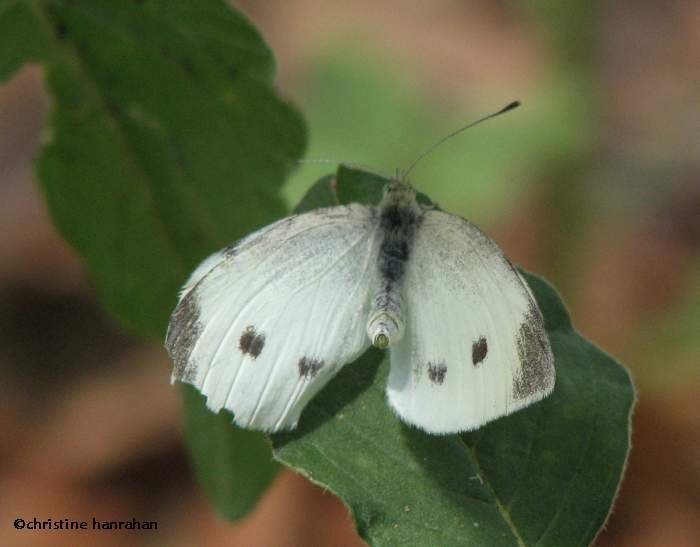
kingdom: Animalia
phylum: Arthropoda
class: Insecta
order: Lepidoptera
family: Pieridae
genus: Pieris
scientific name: Pieris rapae
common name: Cabbage White
